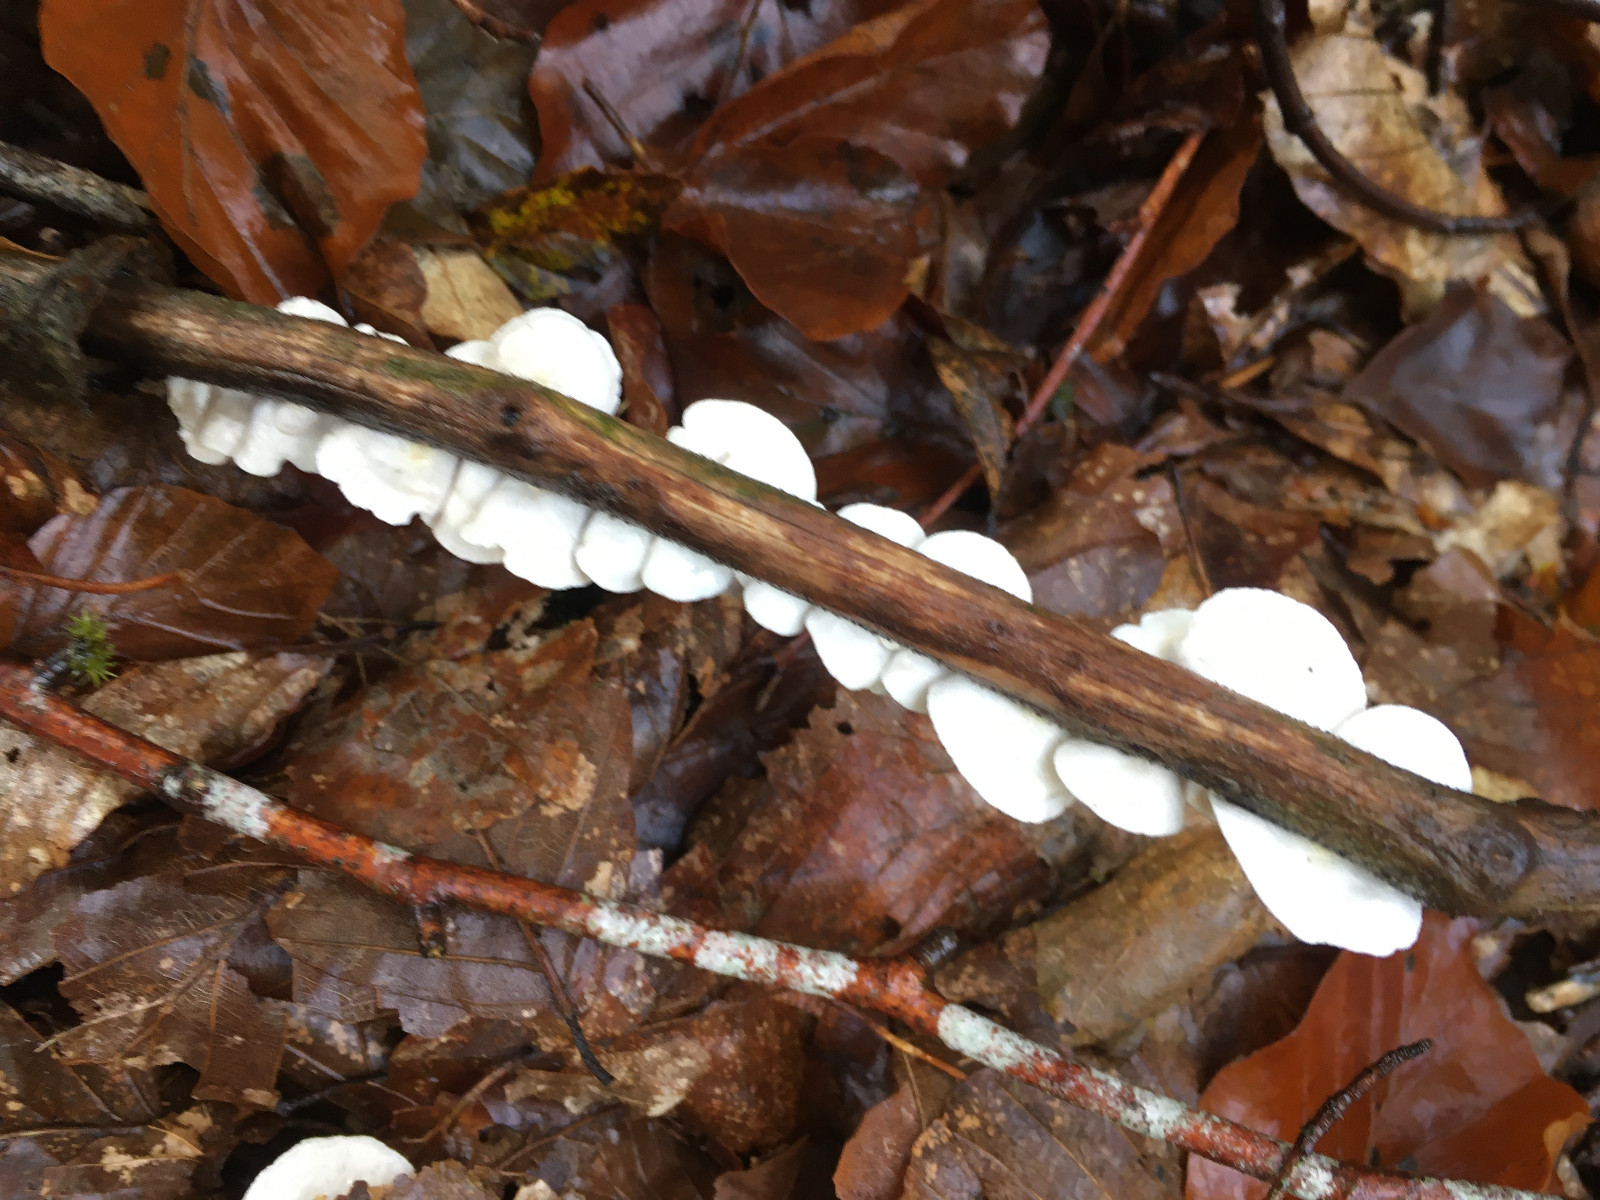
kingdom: Fungi
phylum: Basidiomycota
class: Agaricomycetes
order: Agaricales
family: Crepidotaceae
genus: Crepidotus
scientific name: Crepidotus
